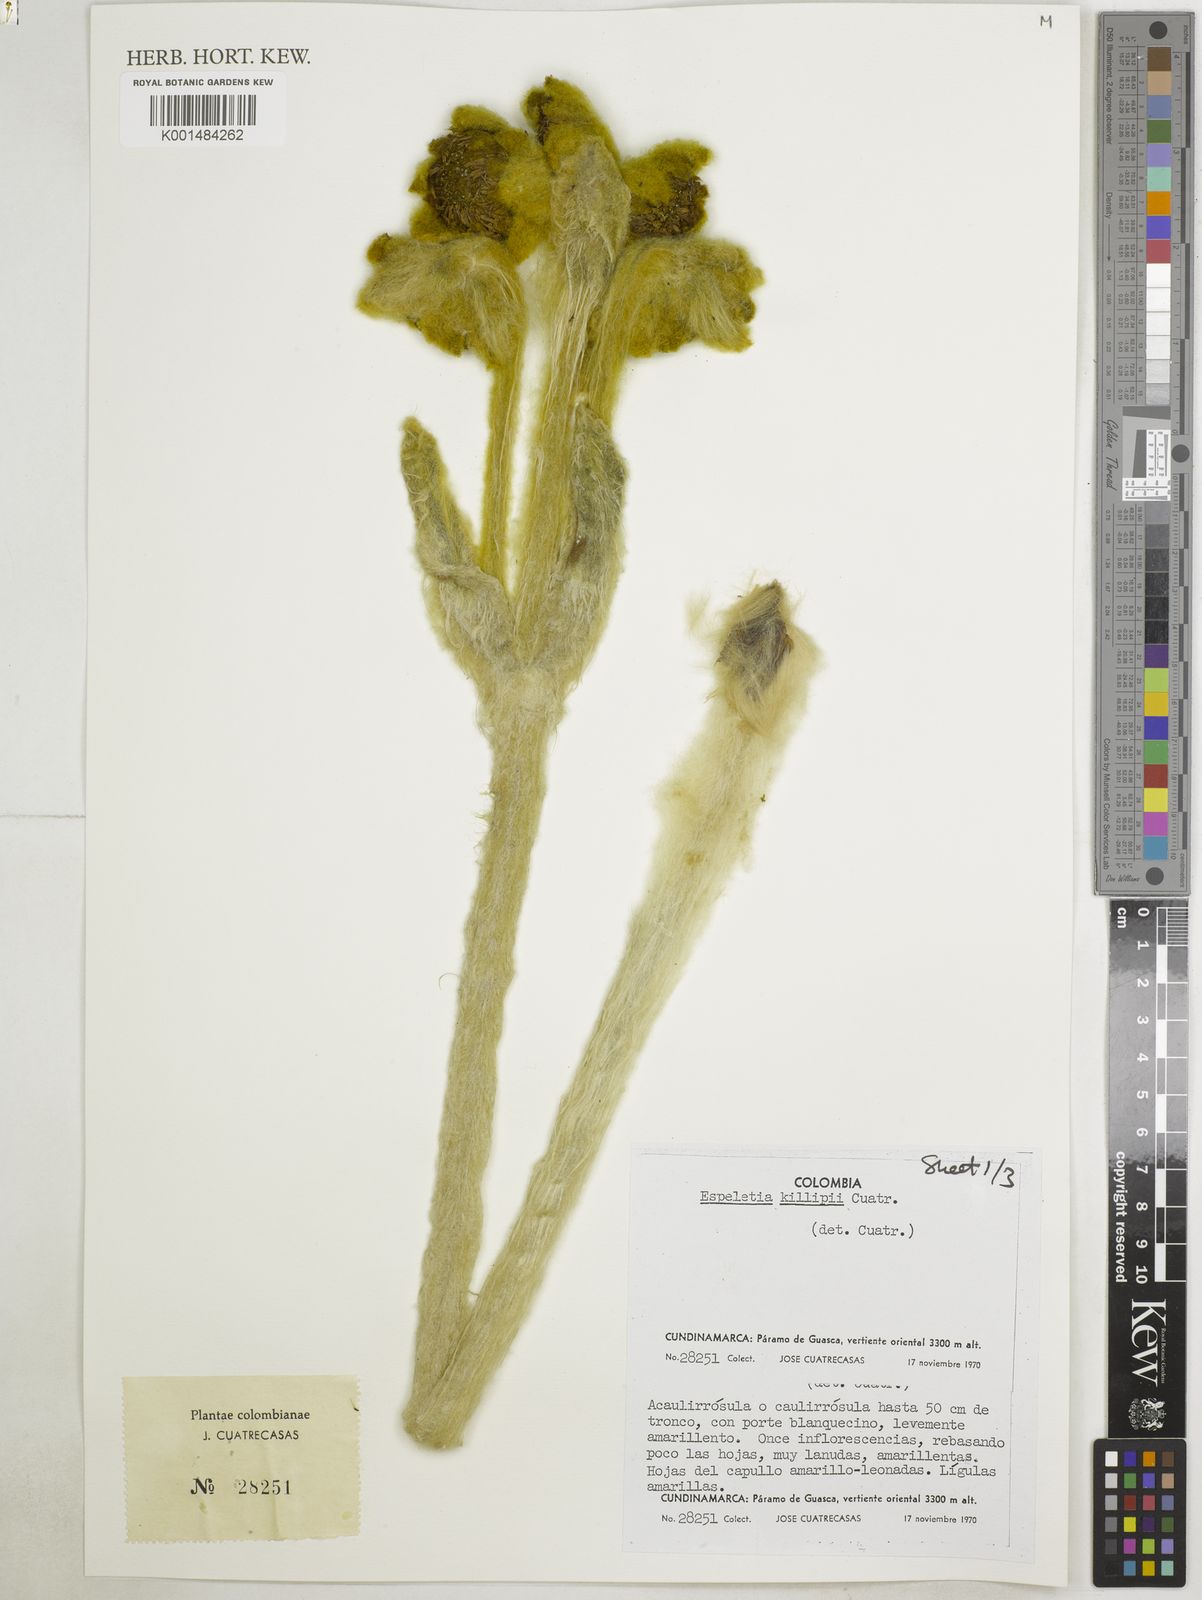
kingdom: Plantae
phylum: Tracheophyta
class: Magnoliopsida
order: Asterales
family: Asteraceae
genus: Espeletia
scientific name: Espeletia killipii
